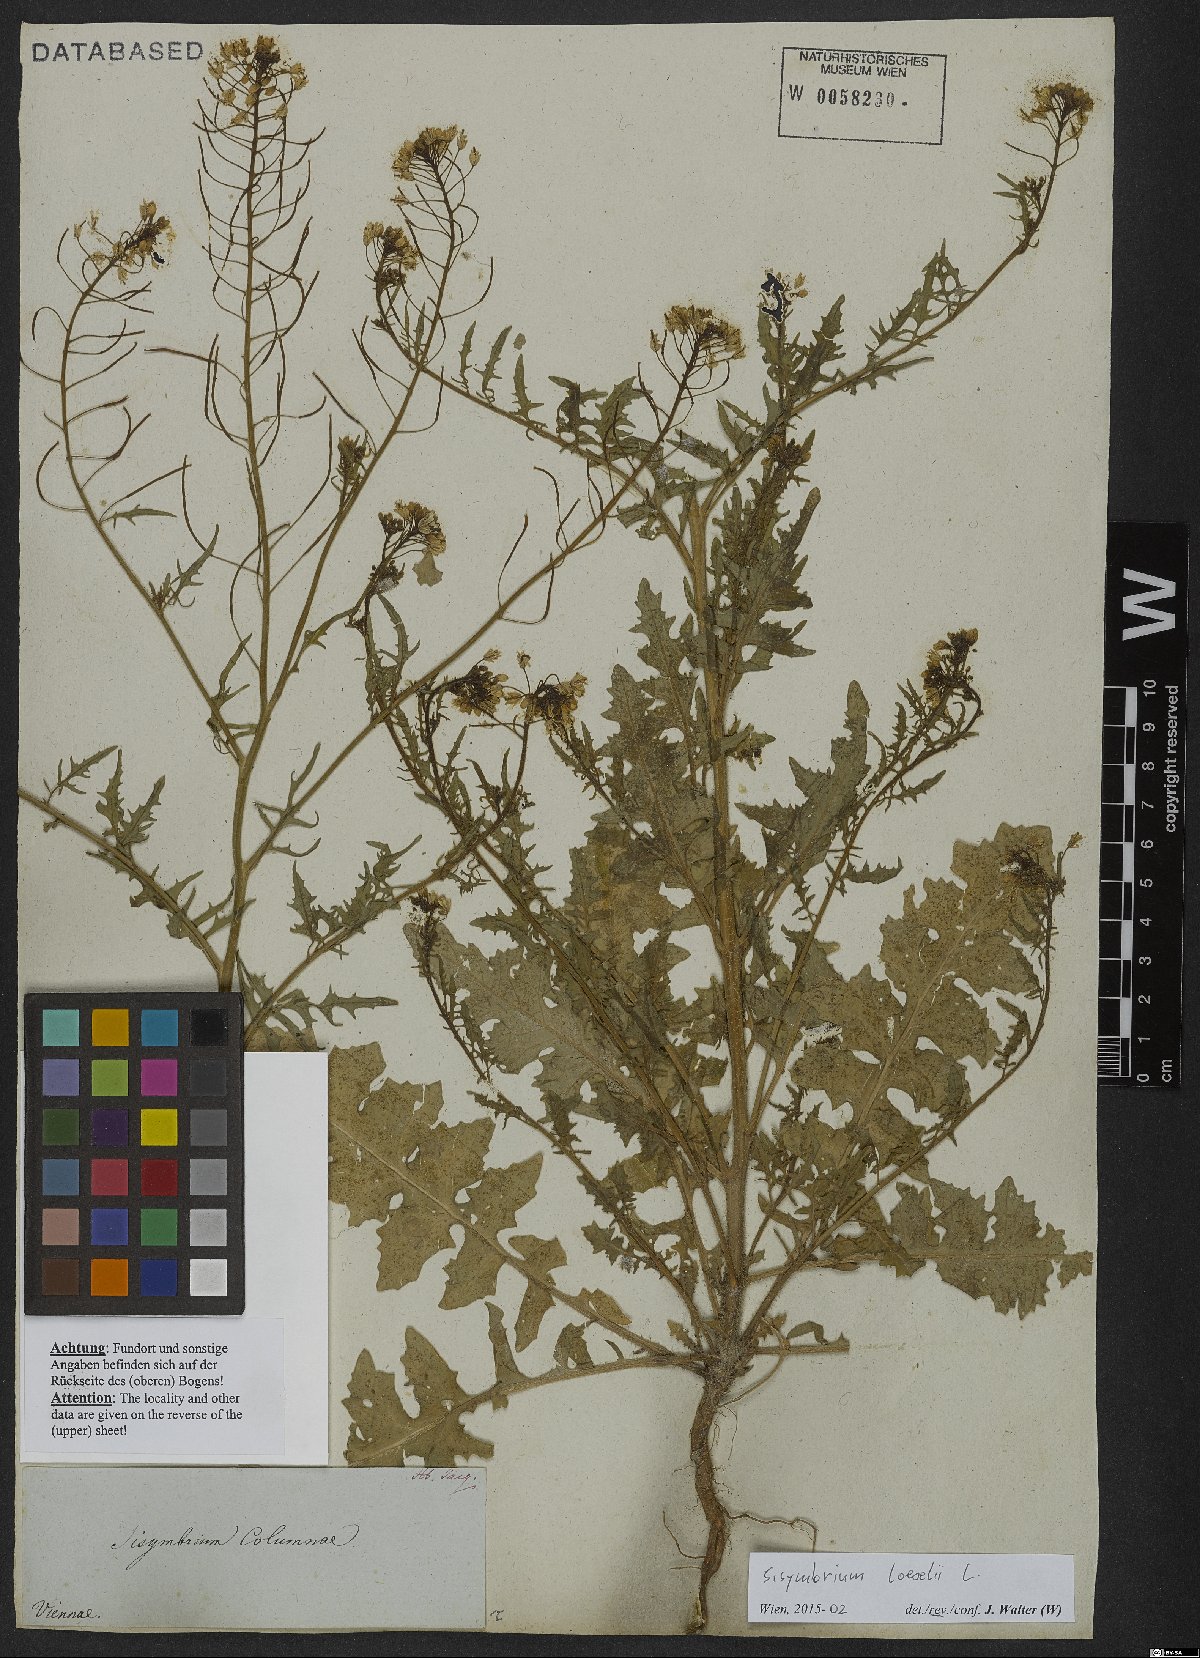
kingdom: Plantae
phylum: Tracheophyta
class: Magnoliopsida
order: Brassicales
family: Brassicaceae
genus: Sisymbrium
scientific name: Sisymbrium loeselii
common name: False london-rocket
